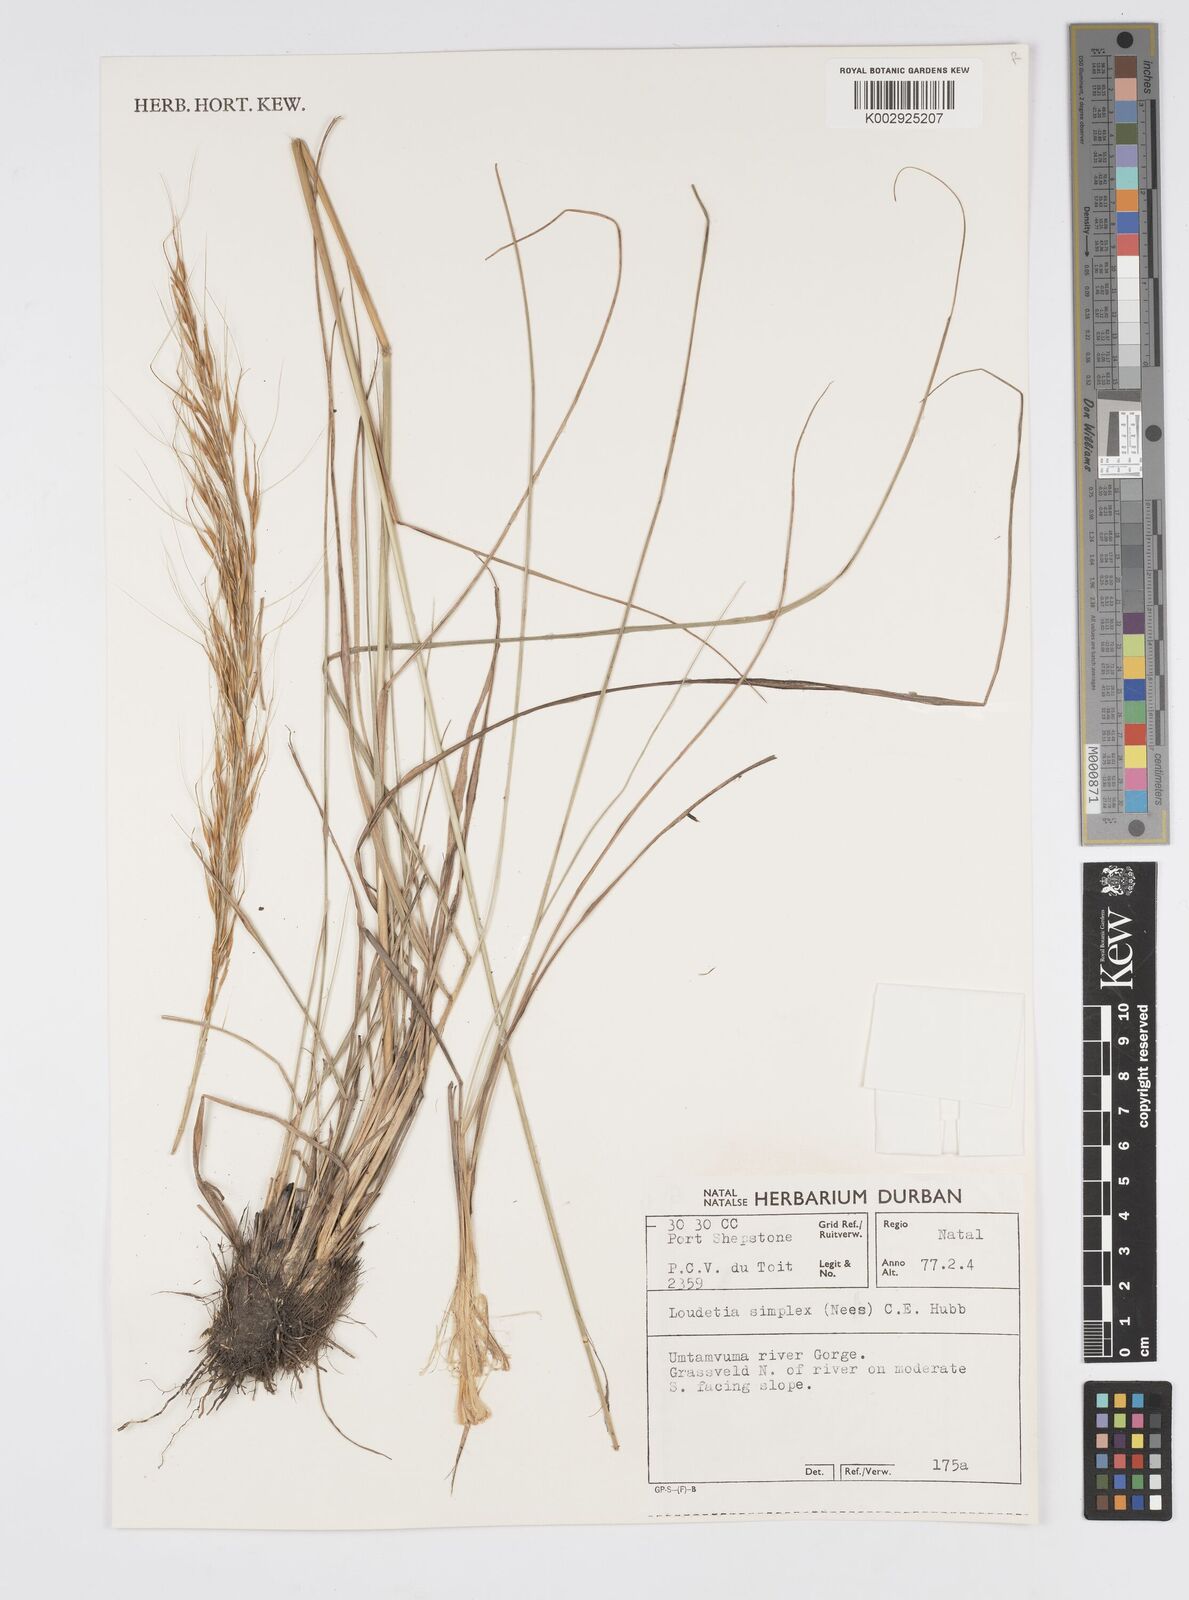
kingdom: Plantae
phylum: Tracheophyta
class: Liliopsida
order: Poales
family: Poaceae
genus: Loudetia
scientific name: Loudetia simplex
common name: Common russet grass
